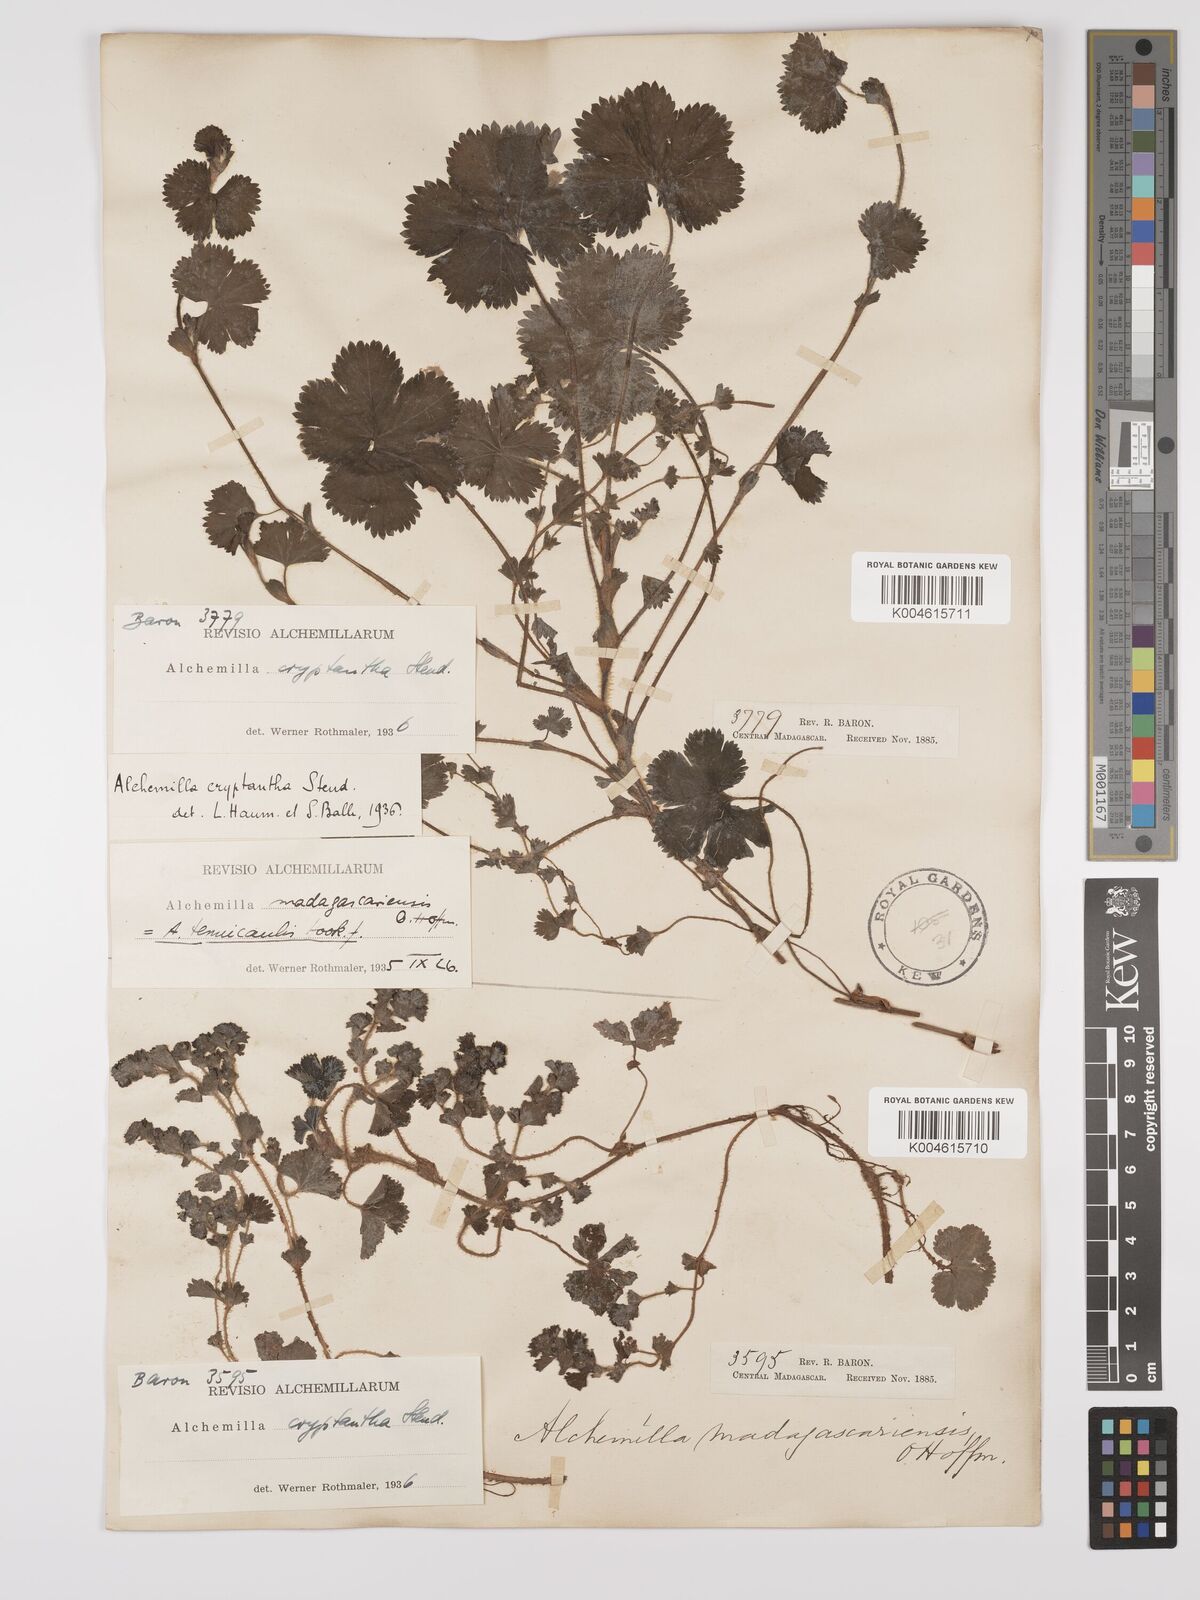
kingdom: Plantae
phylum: Tracheophyta
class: Magnoliopsida
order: Rosales
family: Rosaceae
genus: Alchemilla
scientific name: Alchemilla cryptantha
